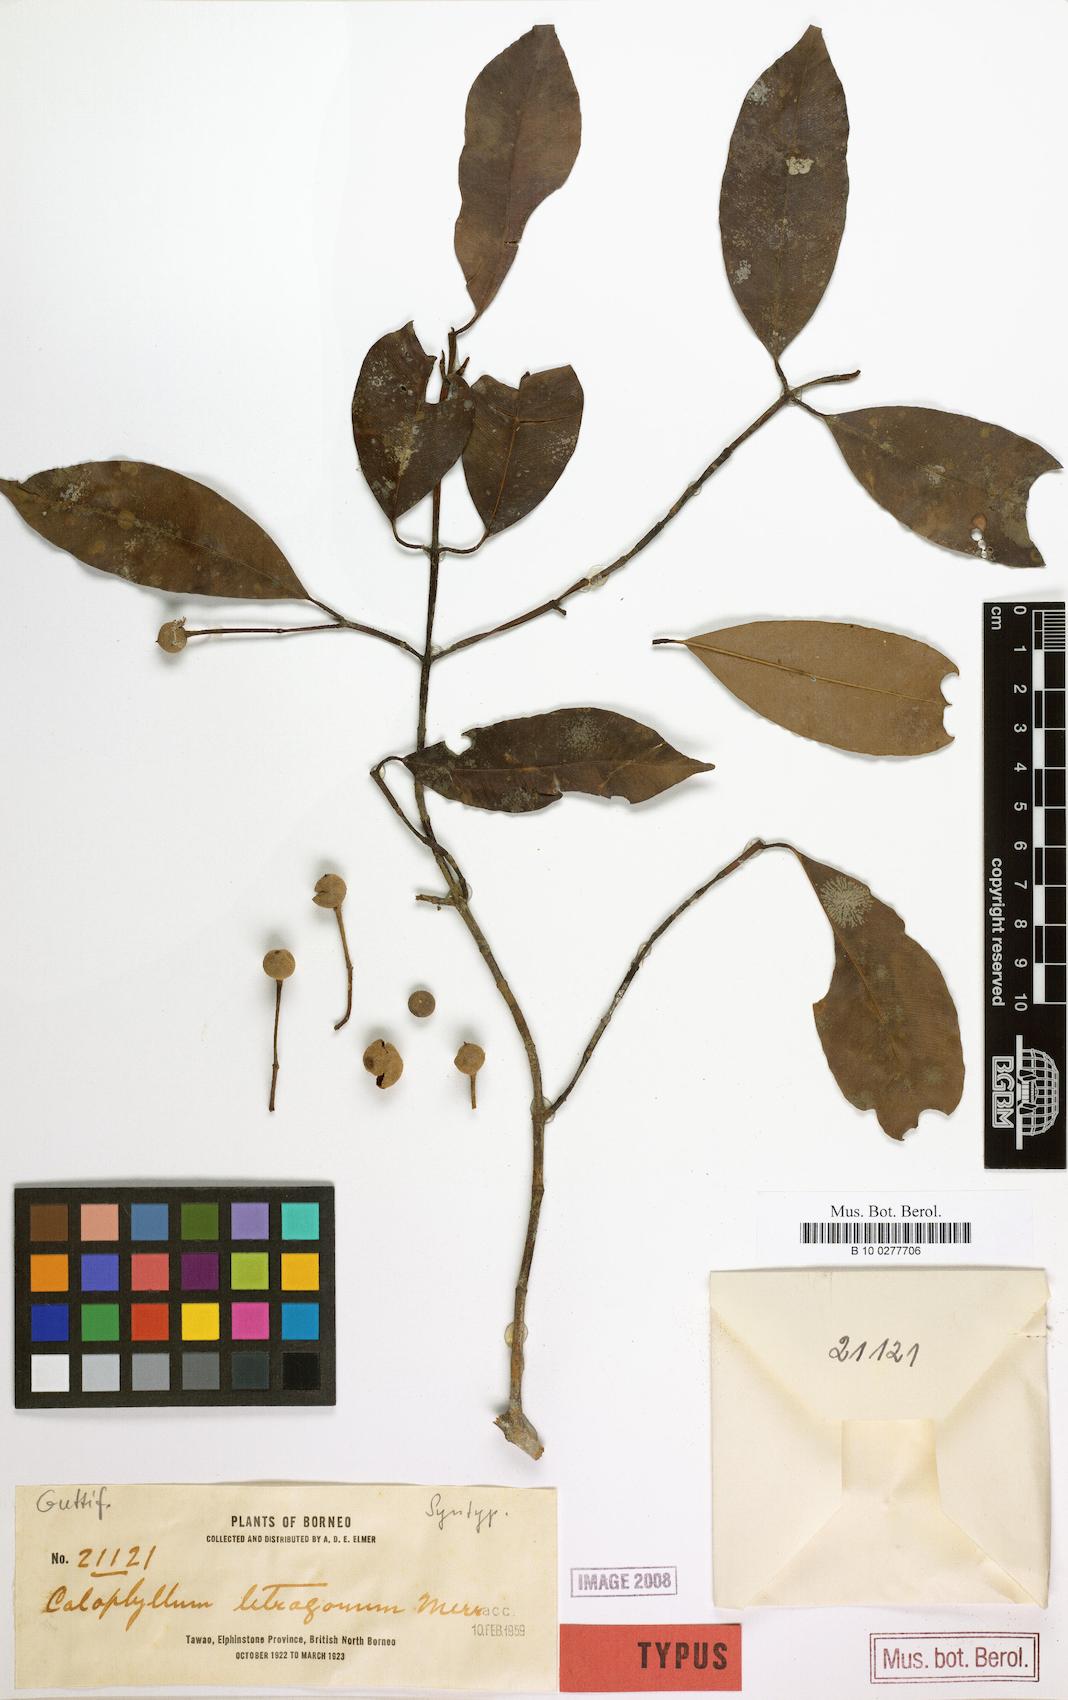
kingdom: Plantae
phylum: Tracheophyta
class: Magnoliopsida
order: Malpighiales
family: Calophyllaceae
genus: Calophyllum
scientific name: Calophyllum gracilipes
